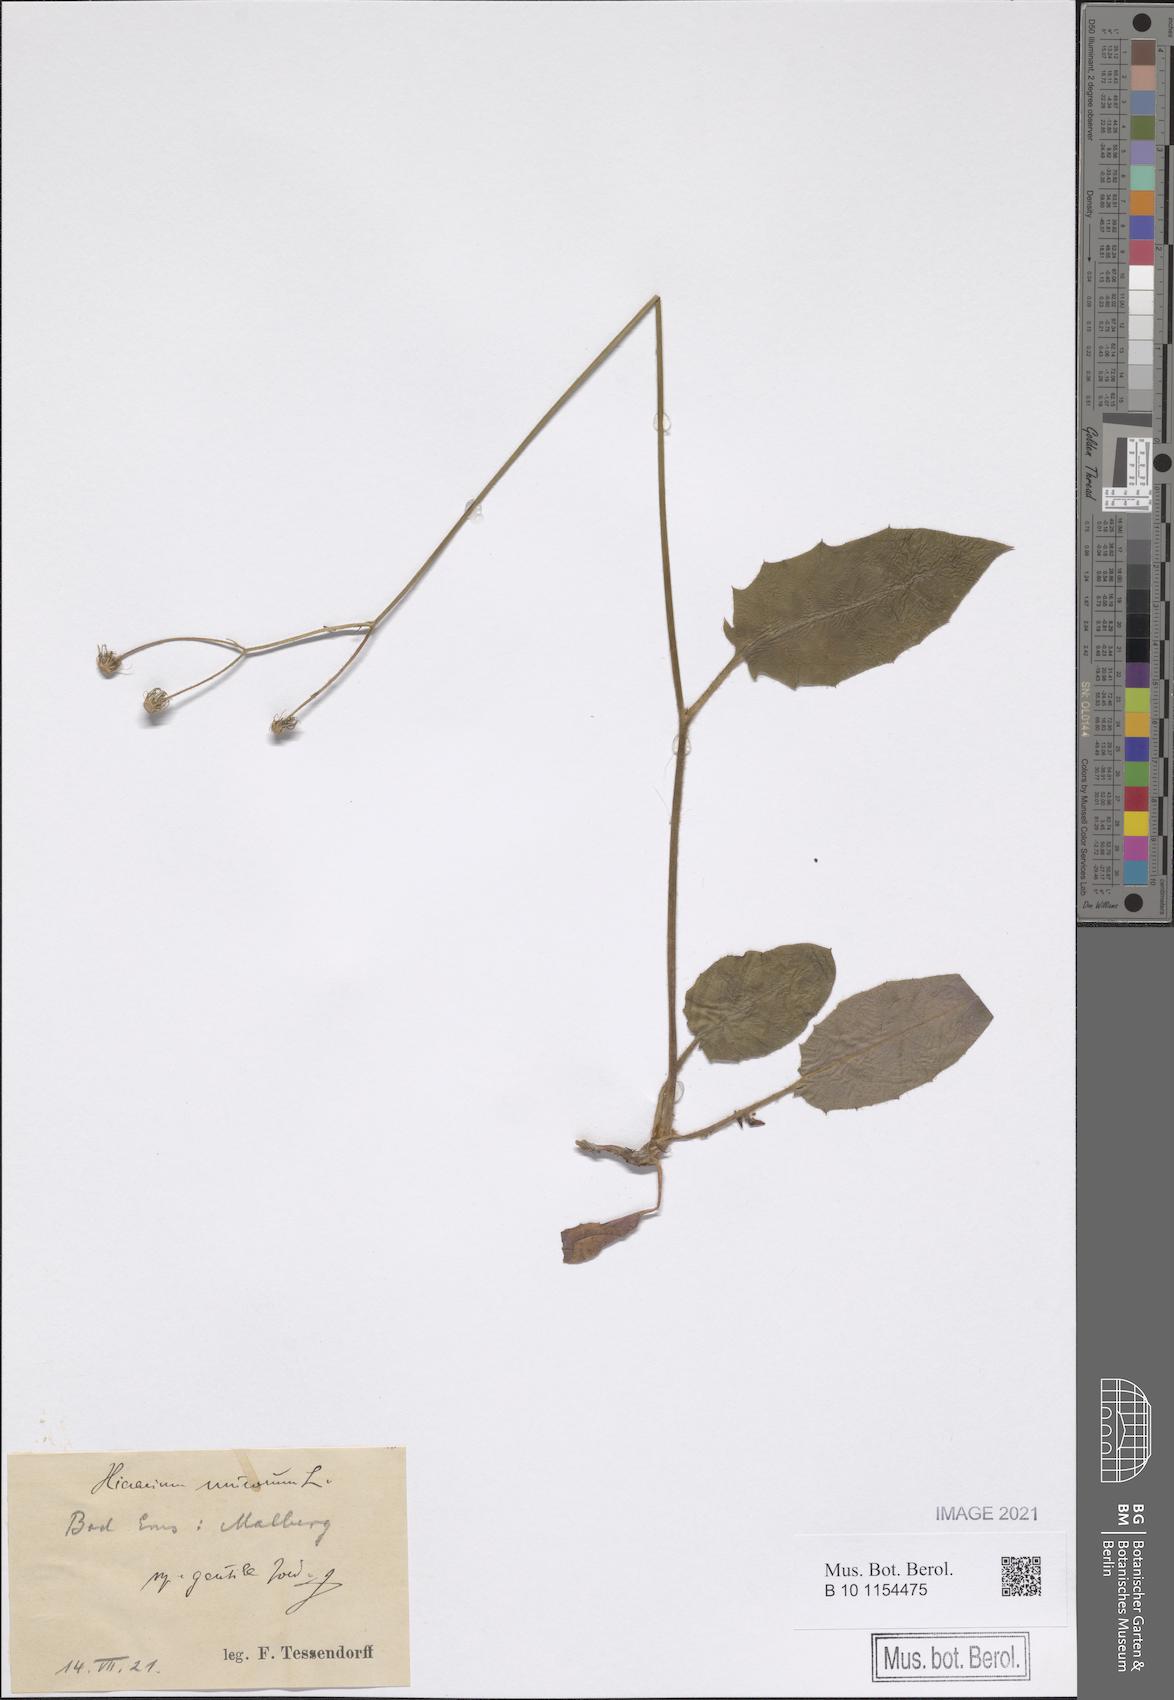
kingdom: Plantae
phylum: Tracheophyta
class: Magnoliopsida
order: Asterales
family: Asteraceae
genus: Hieracium
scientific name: Hieracium murorum
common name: Wall hawkweed
